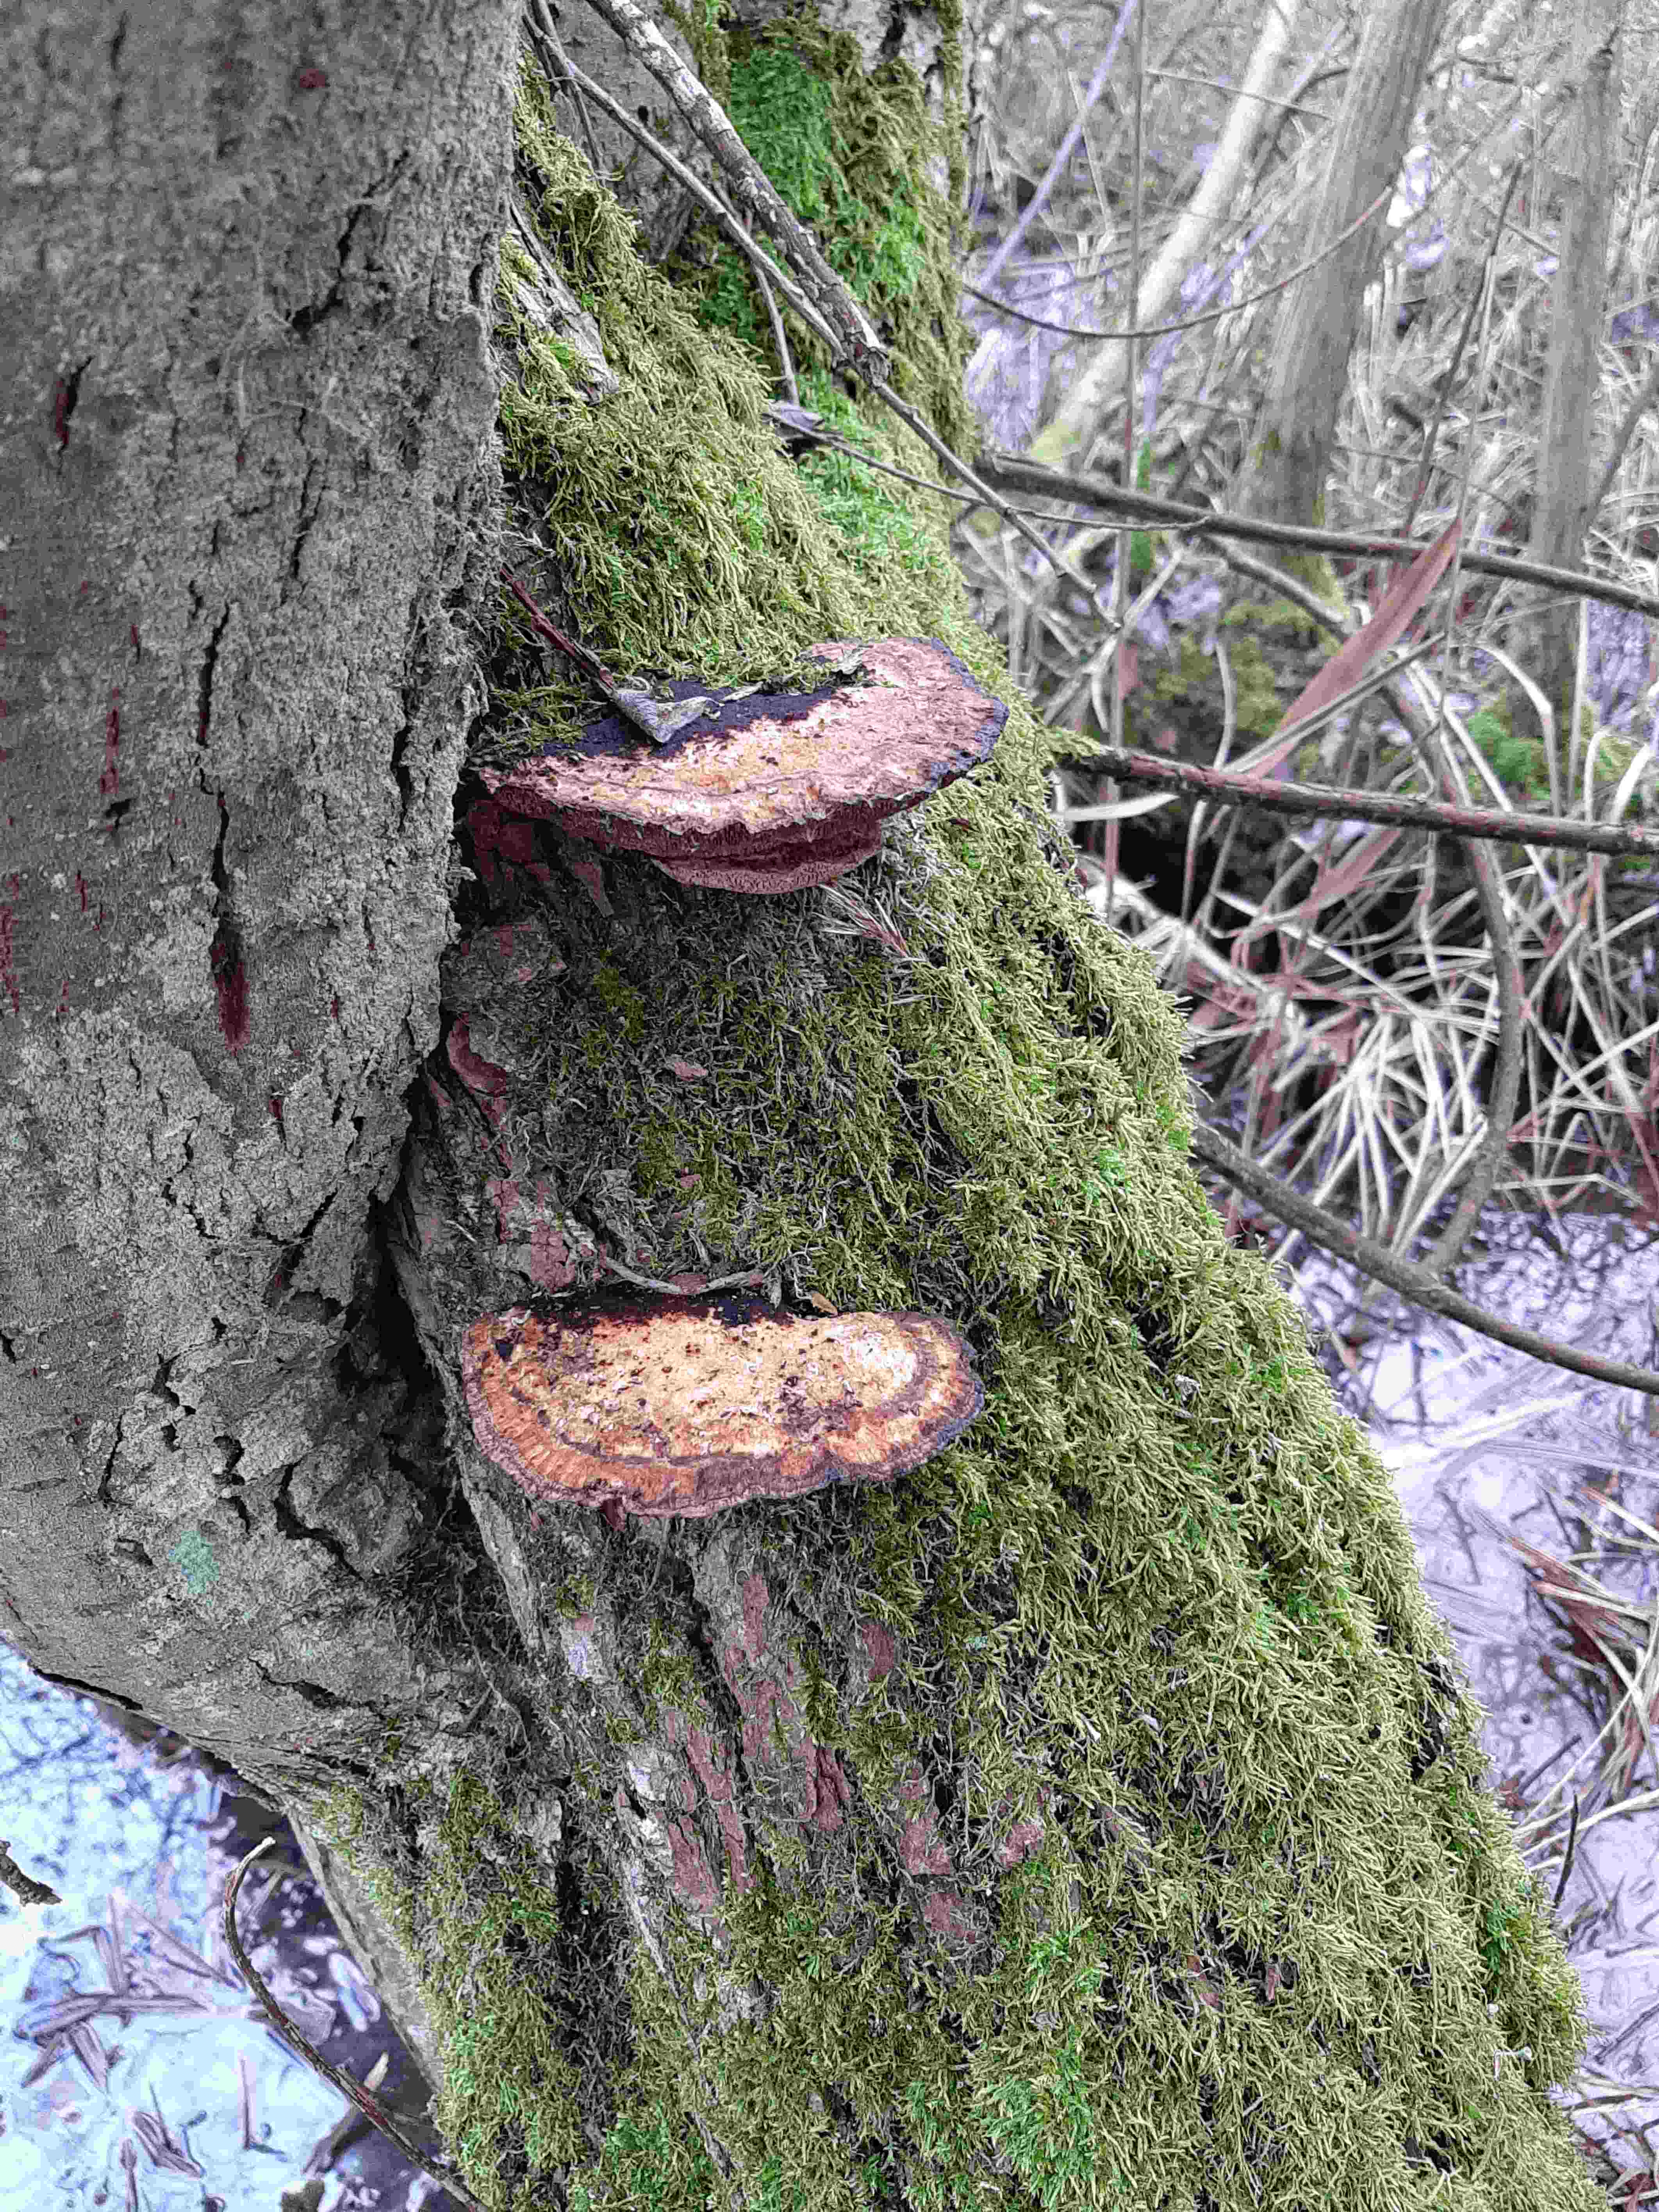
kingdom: Fungi
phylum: Basidiomycota
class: Agaricomycetes
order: Polyporales
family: Polyporaceae
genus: Daedaleopsis
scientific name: Daedaleopsis confragosa
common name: rødmende læderporesvamp
